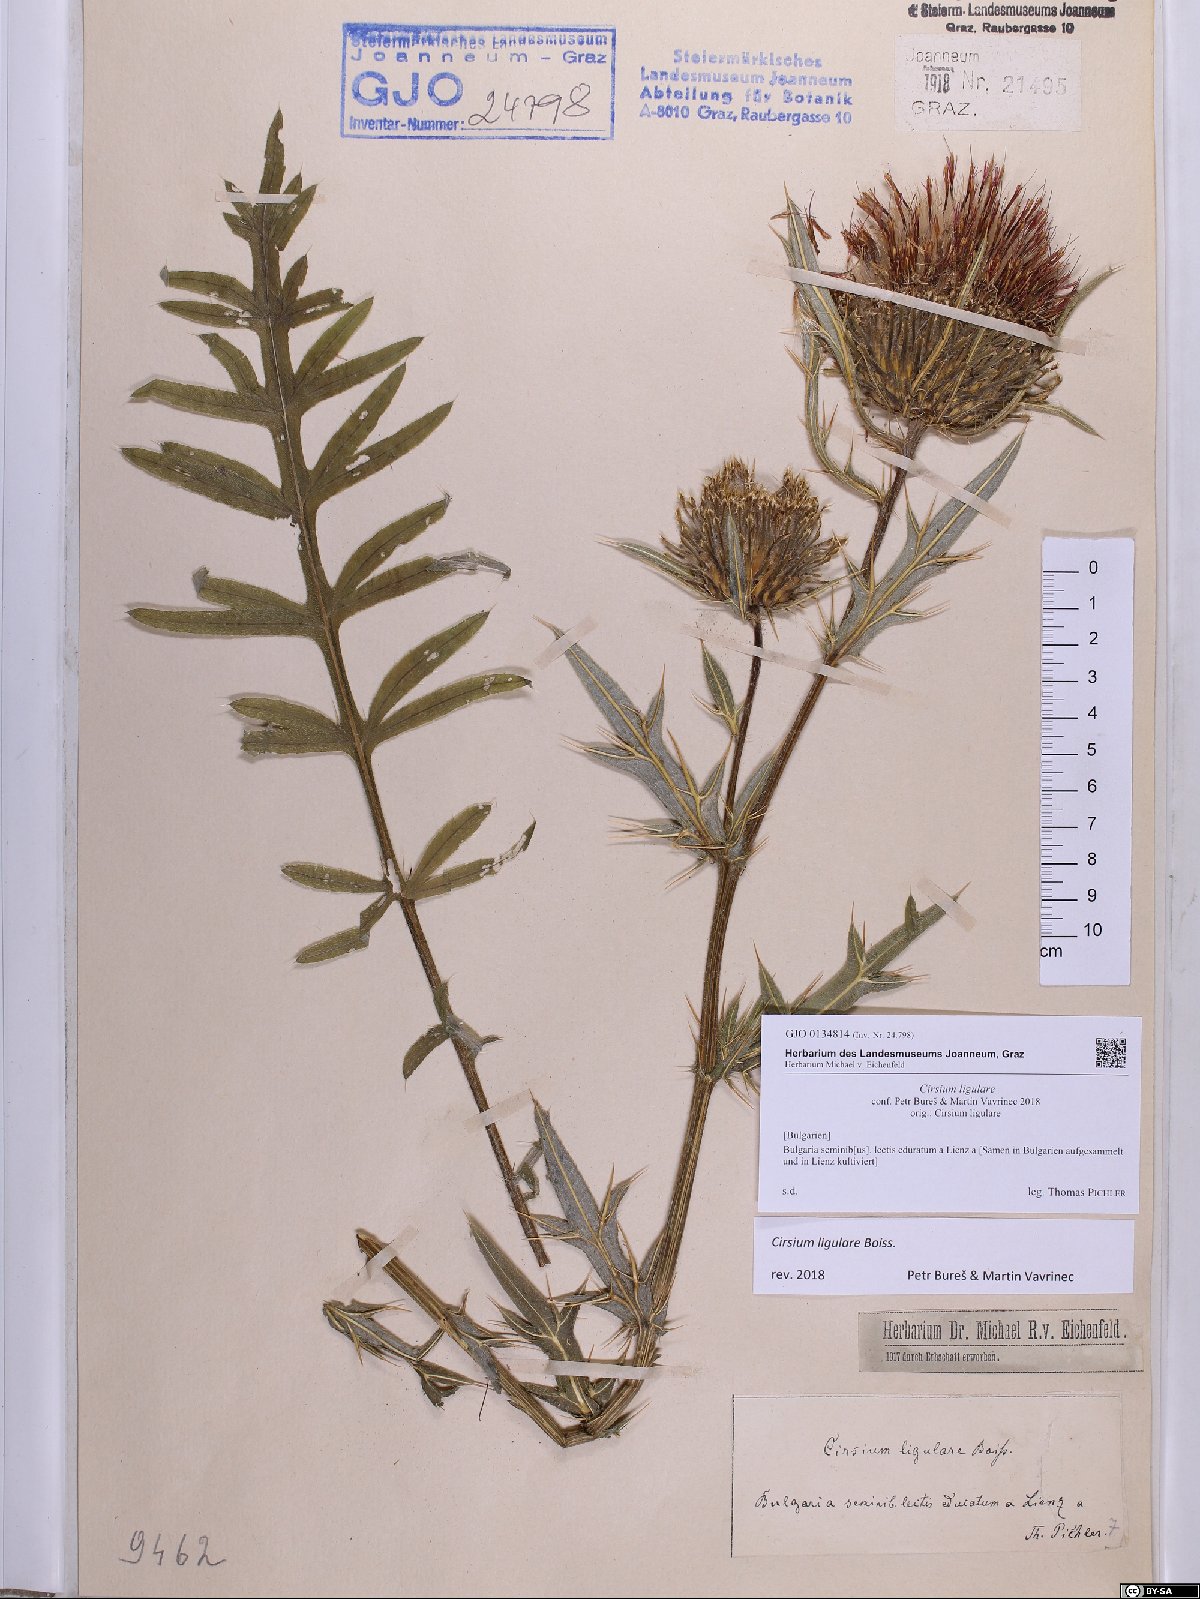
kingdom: Plantae
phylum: Tracheophyta
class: Magnoliopsida
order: Asterales
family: Asteraceae
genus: Lophiolepis
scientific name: Lophiolepis ligularis
